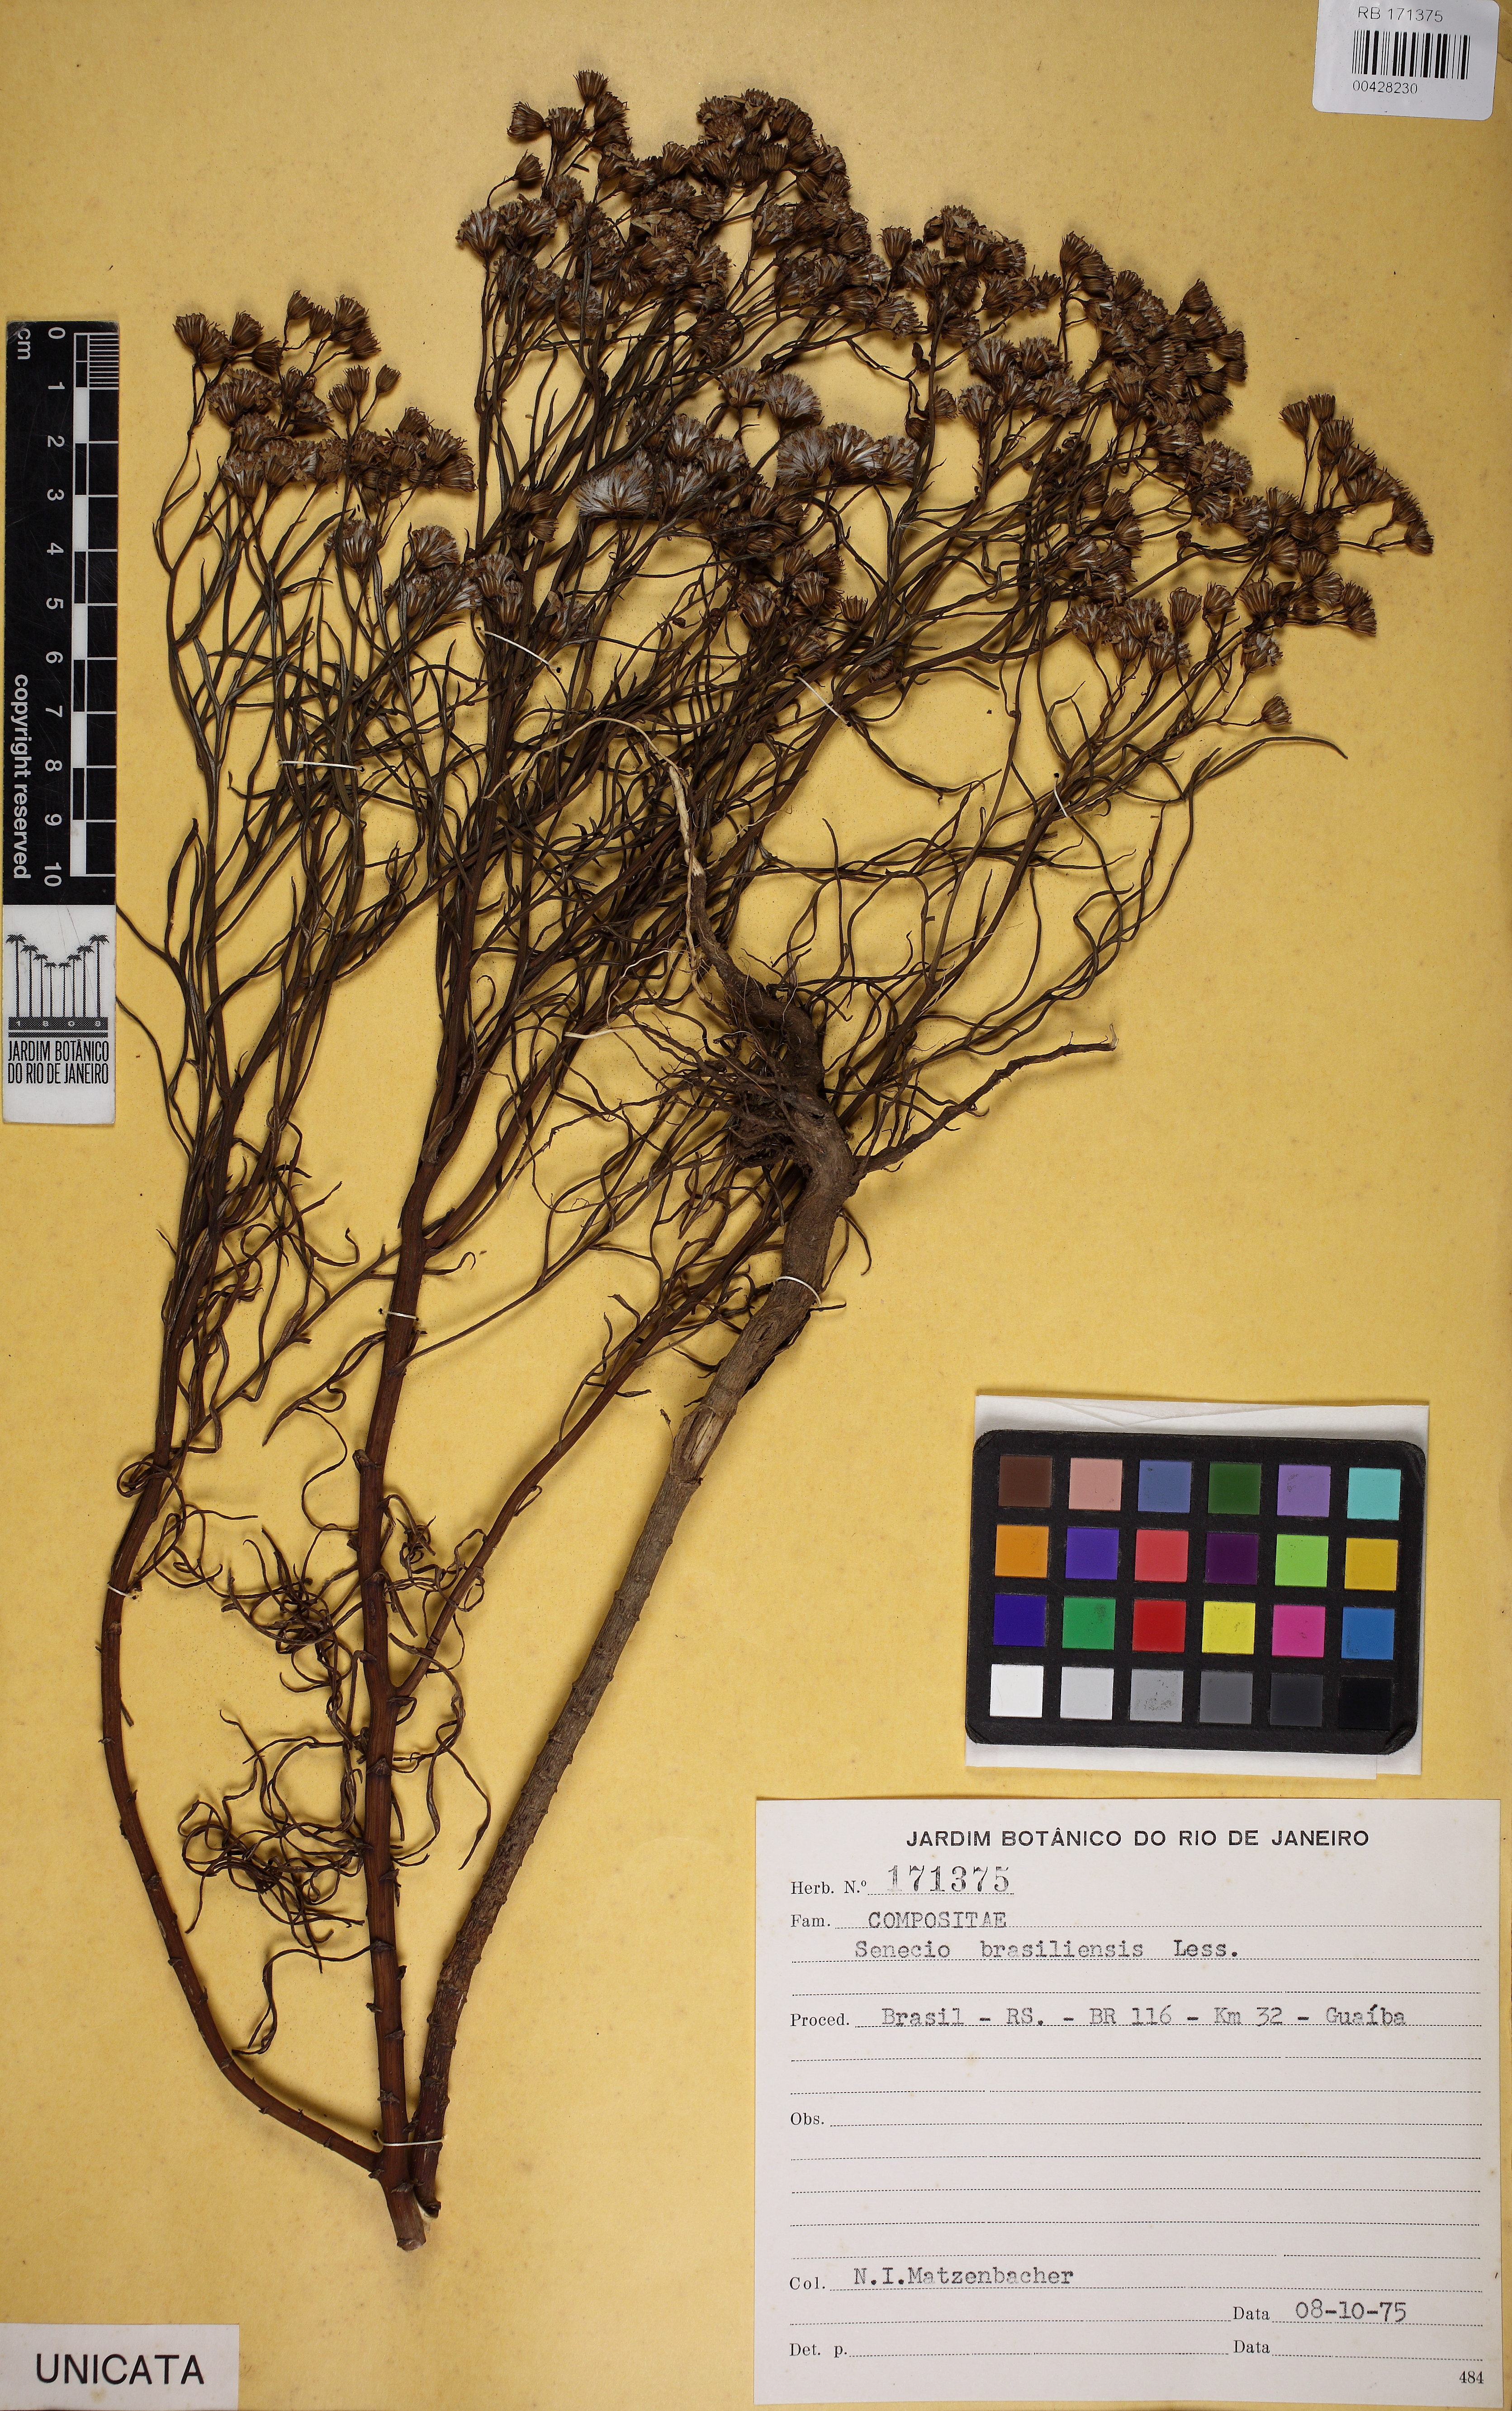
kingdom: Plantae
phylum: Tracheophyta
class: Magnoliopsida
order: Asterales
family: Asteraceae
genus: Senecio
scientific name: Senecio brasiliensis
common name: Hemp-leaf ragwort
